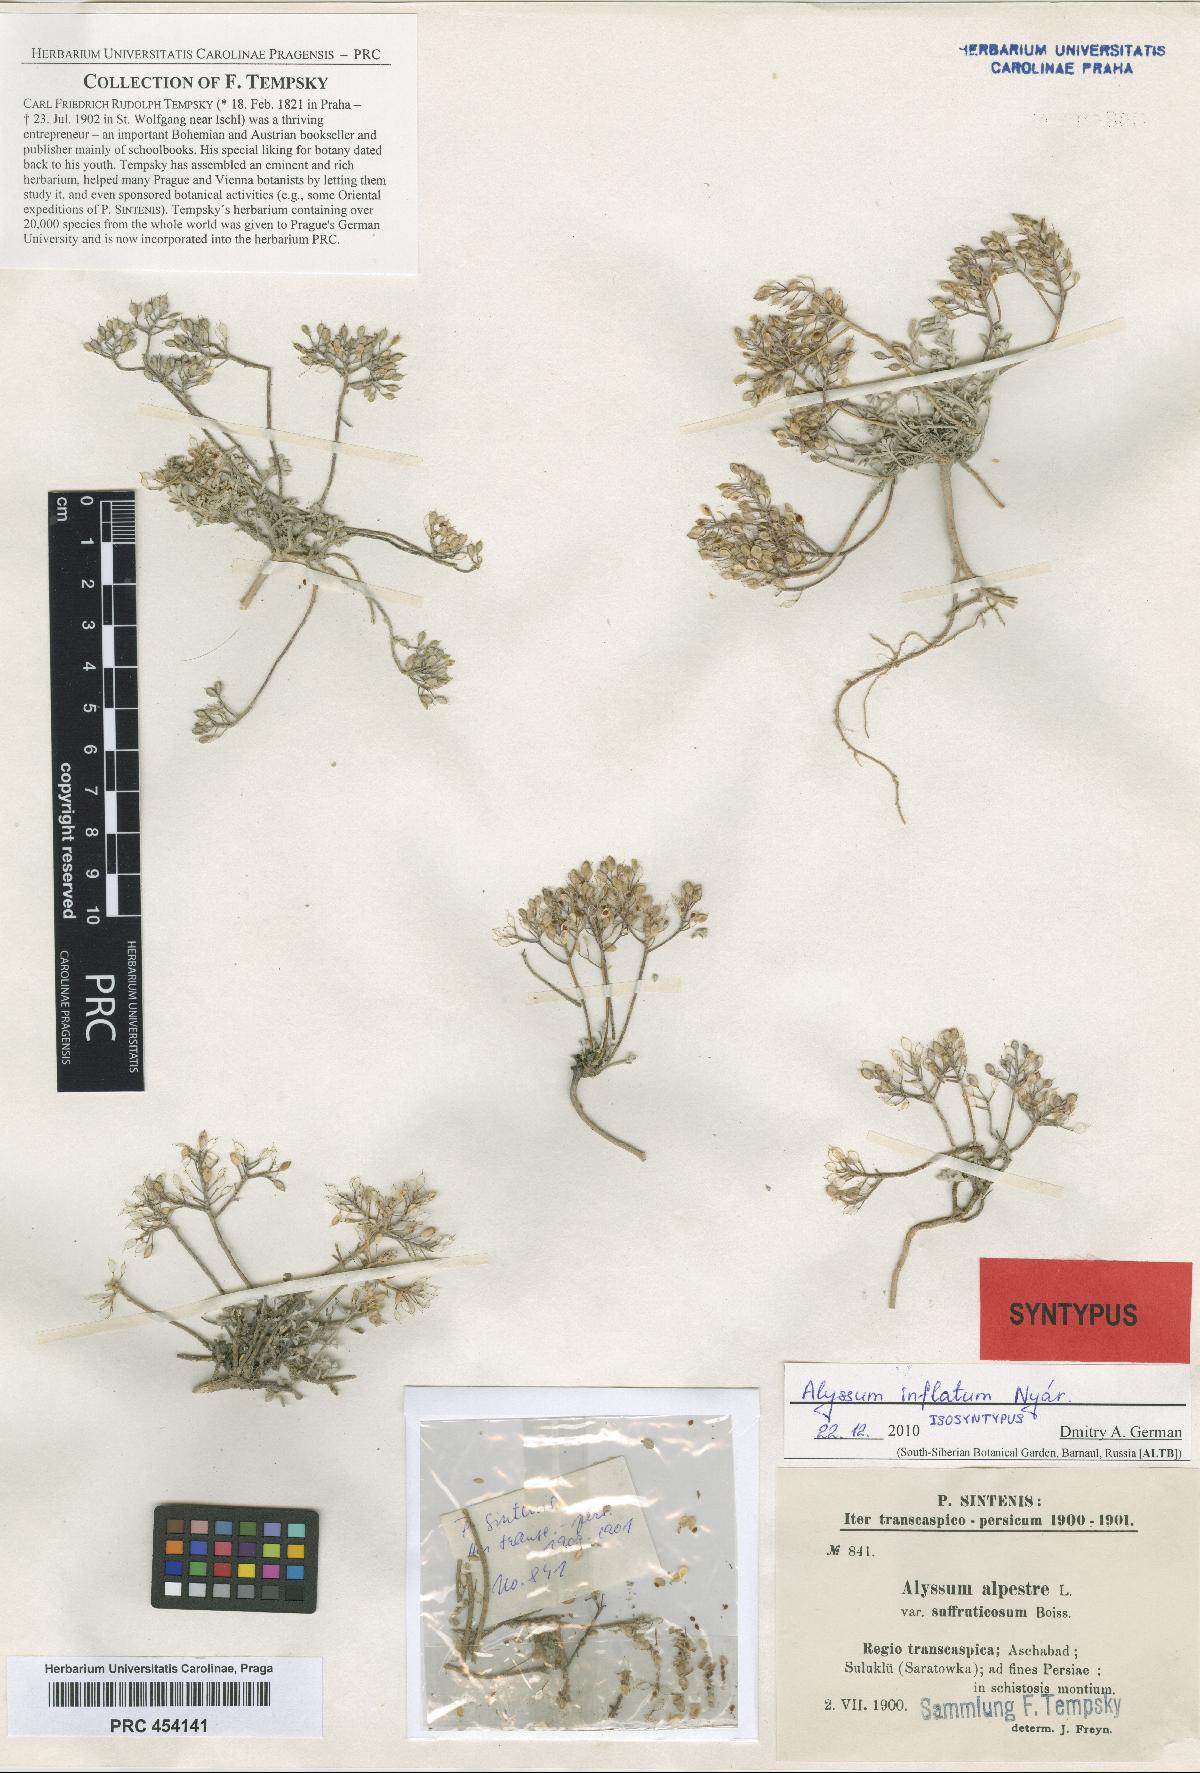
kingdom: Plantae
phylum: Tracheophyta
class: Magnoliopsida
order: Brassicales
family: Brassicaceae
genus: Odontarrhena
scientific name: Odontarrhena inflata
